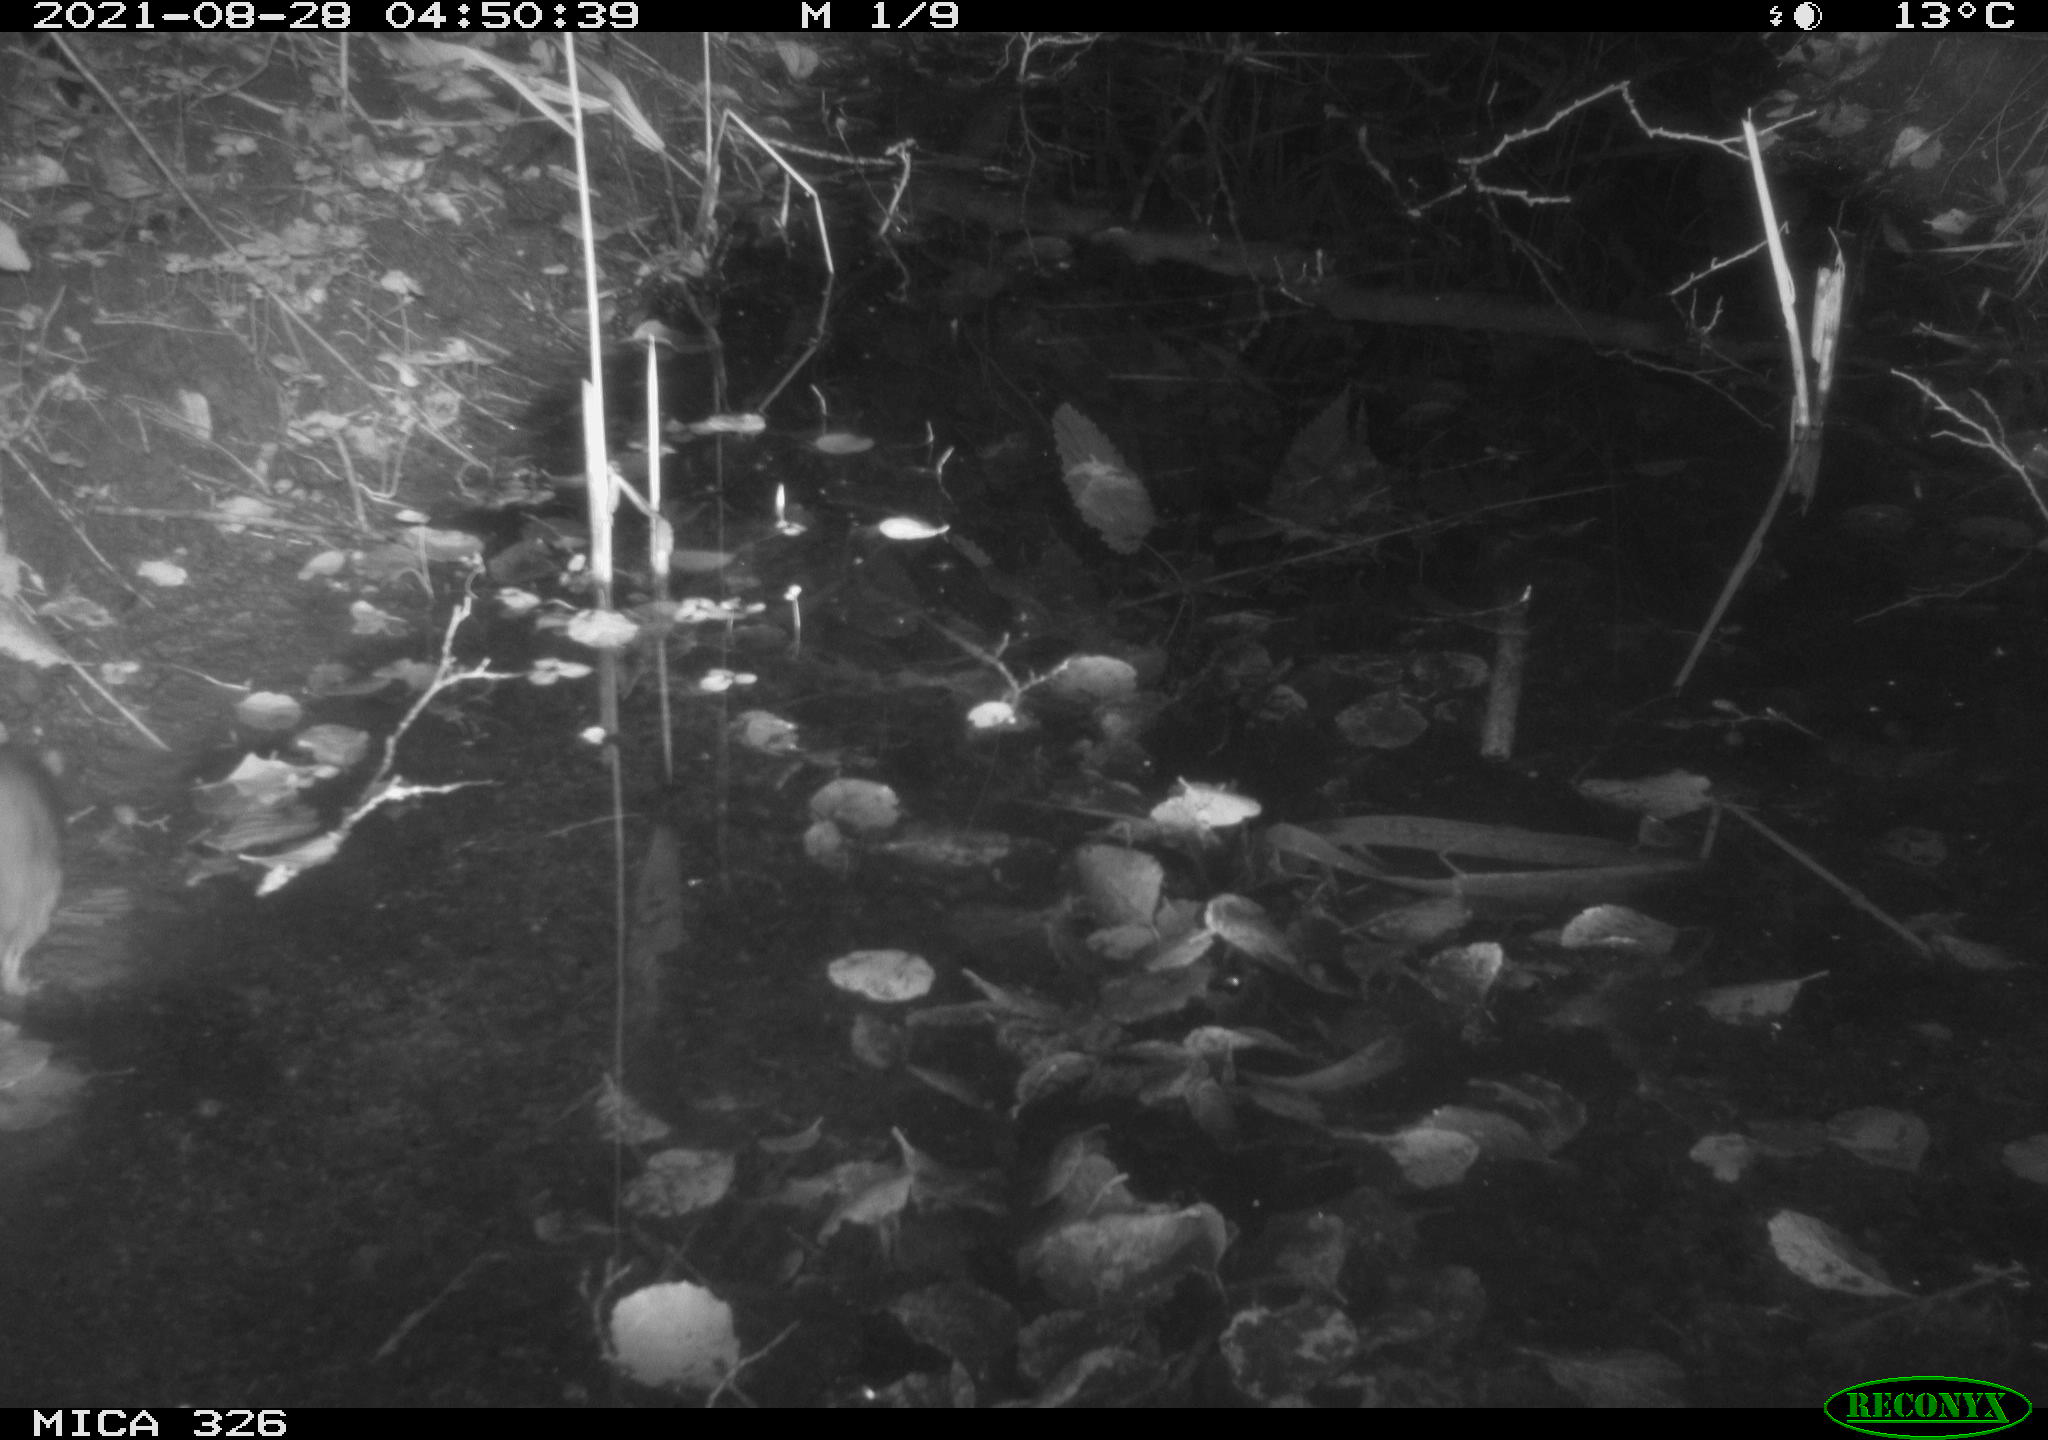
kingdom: Animalia
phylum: Chordata
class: Mammalia
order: Rodentia
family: Muridae
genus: Rattus
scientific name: Rattus norvegicus
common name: Brown rat
